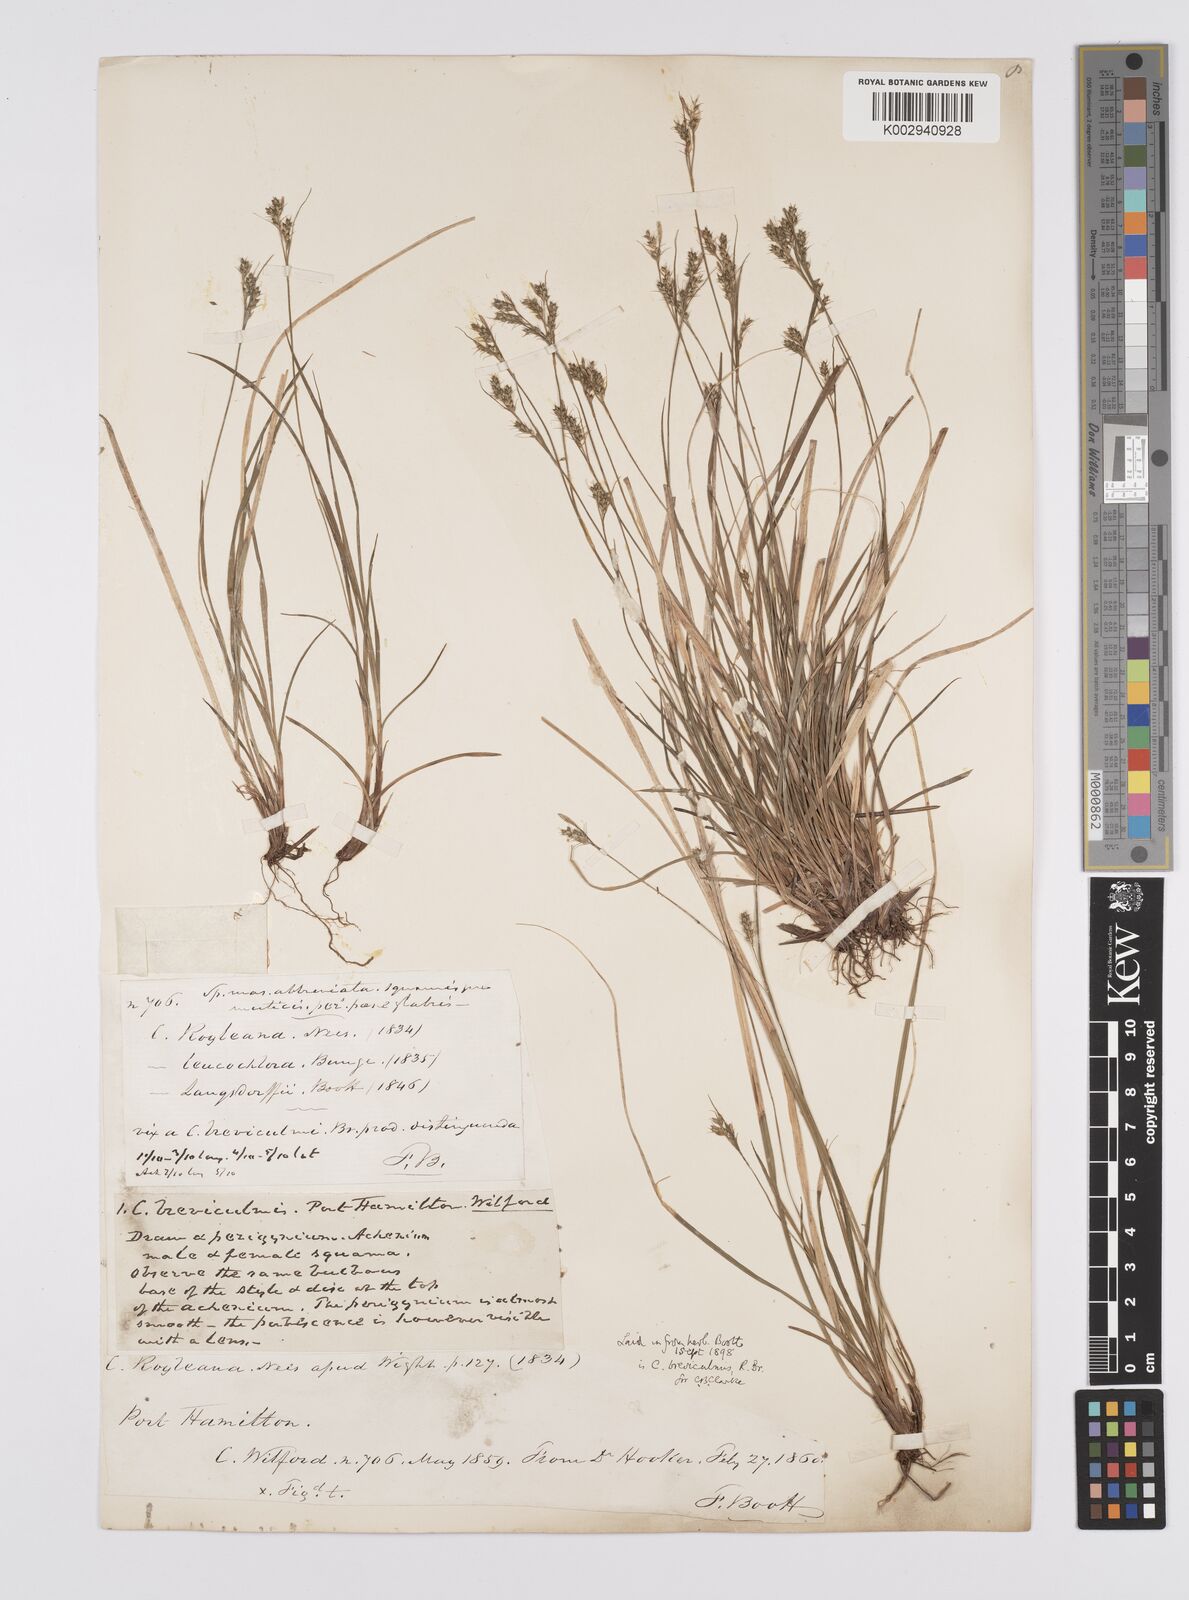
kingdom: Plantae
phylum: Tracheophyta
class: Liliopsida
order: Poales
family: Cyperaceae
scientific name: Cyperaceae
